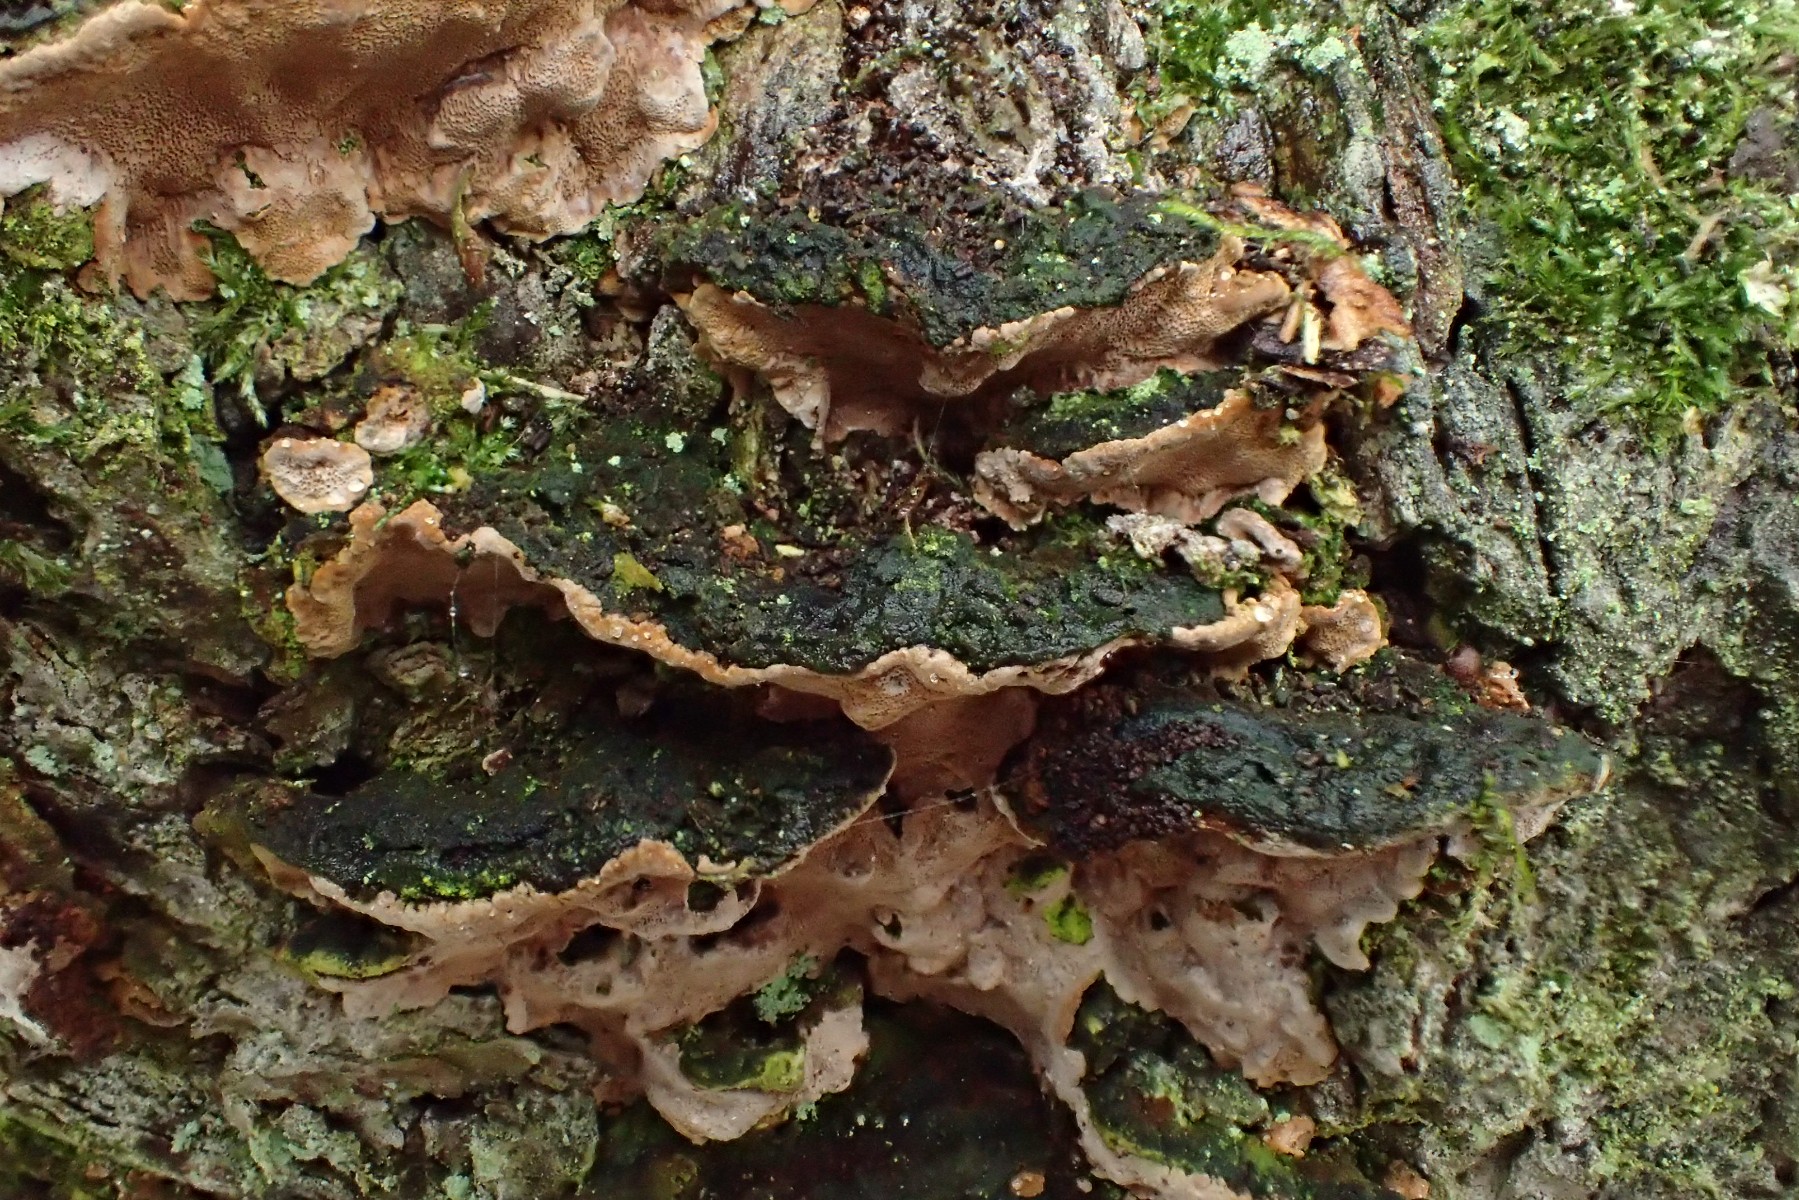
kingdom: Fungi
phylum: Basidiomycota
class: Agaricomycetes
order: Hymenochaetales
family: Hymenochaetaceae
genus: Phellinopsis
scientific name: Phellinopsis conchata
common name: pile-ildporesvamp
